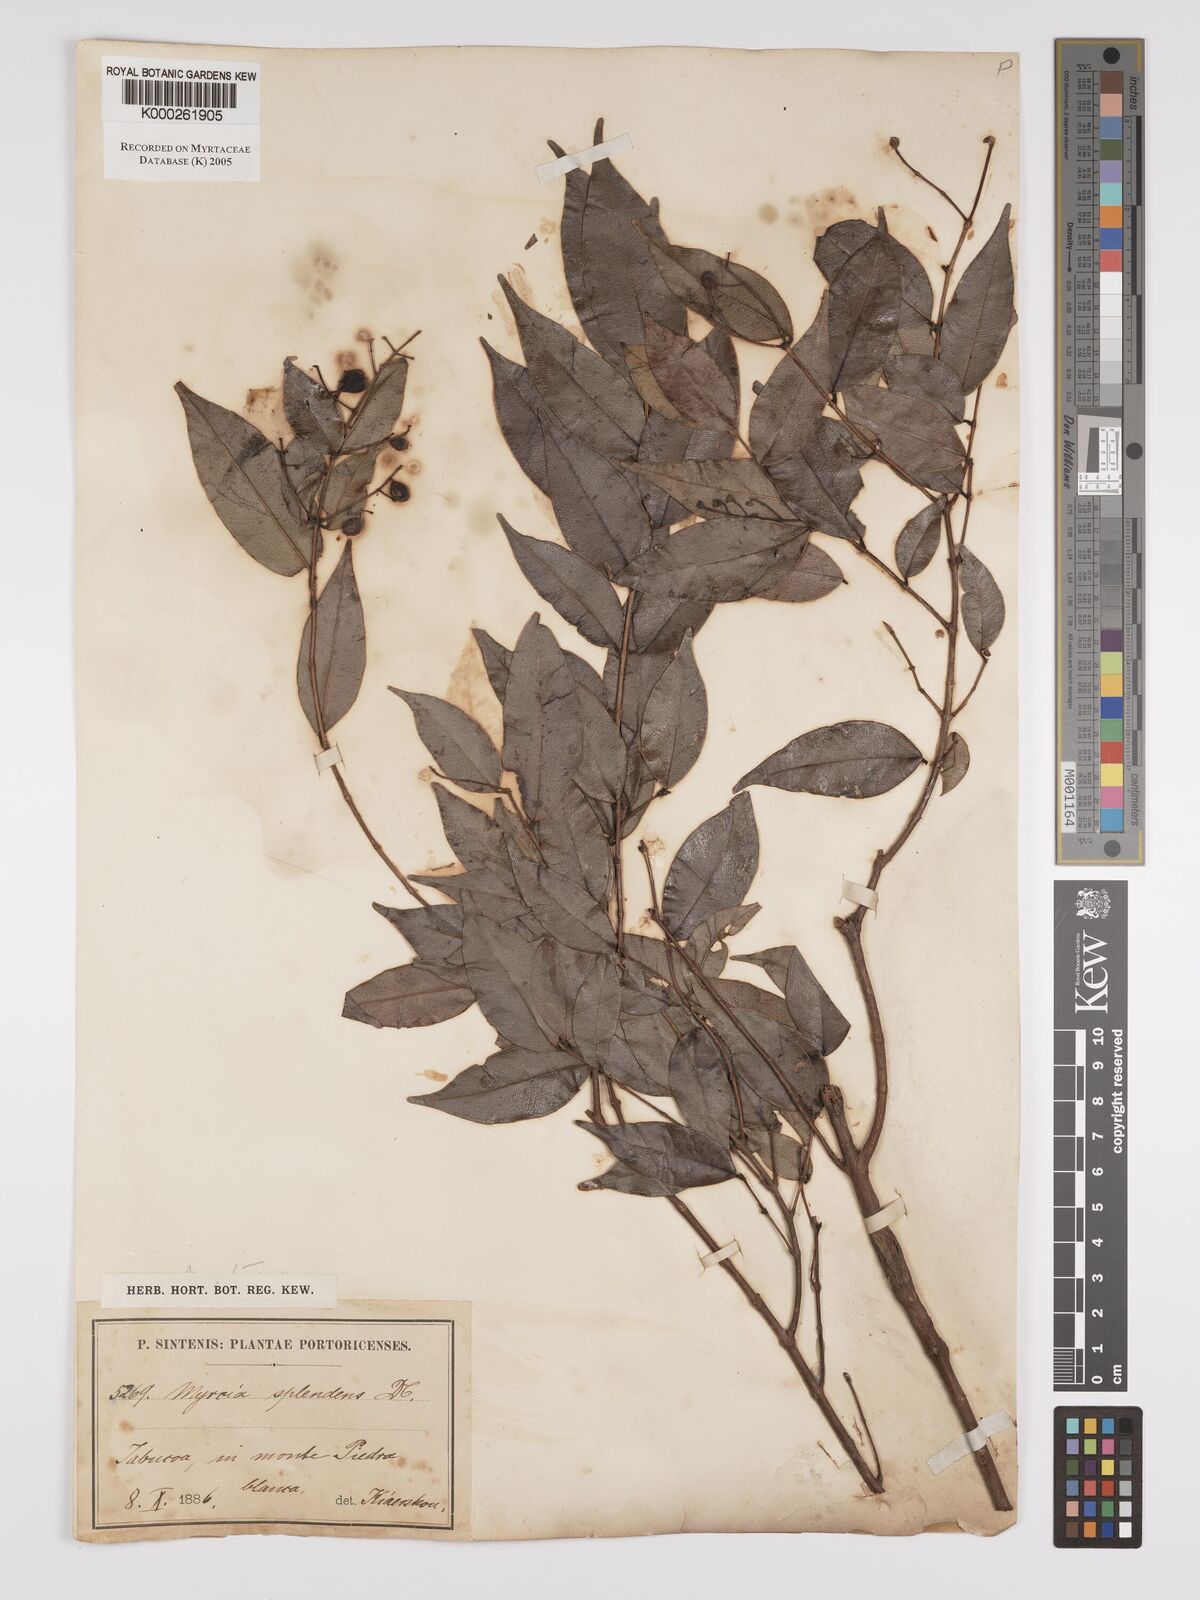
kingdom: Plantae
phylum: Tracheophyta
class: Magnoliopsida
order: Myrtales
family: Myrtaceae
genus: Myrcia
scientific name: Myrcia splendens
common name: Surinam cherry
